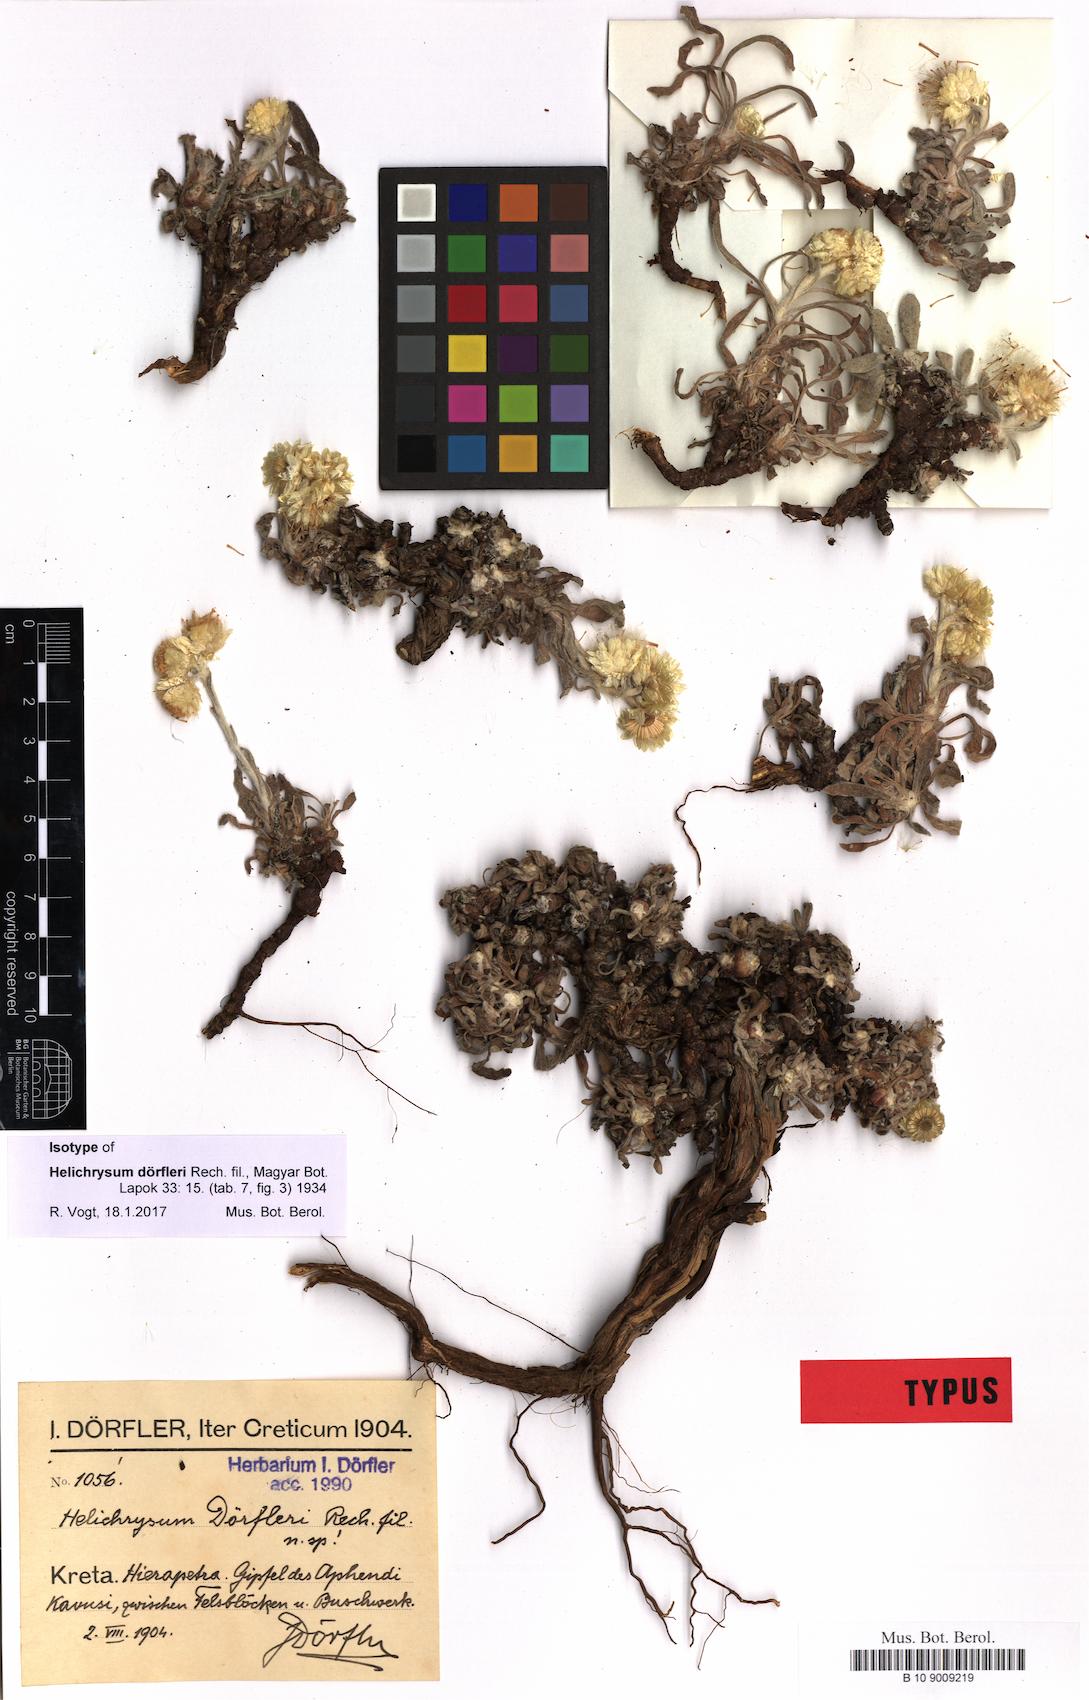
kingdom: Plantae
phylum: Tracheophyta
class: Magnoliopsida
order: Asterales
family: Asteraceae
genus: Helichrysum
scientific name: Helichrysum doerfleri
